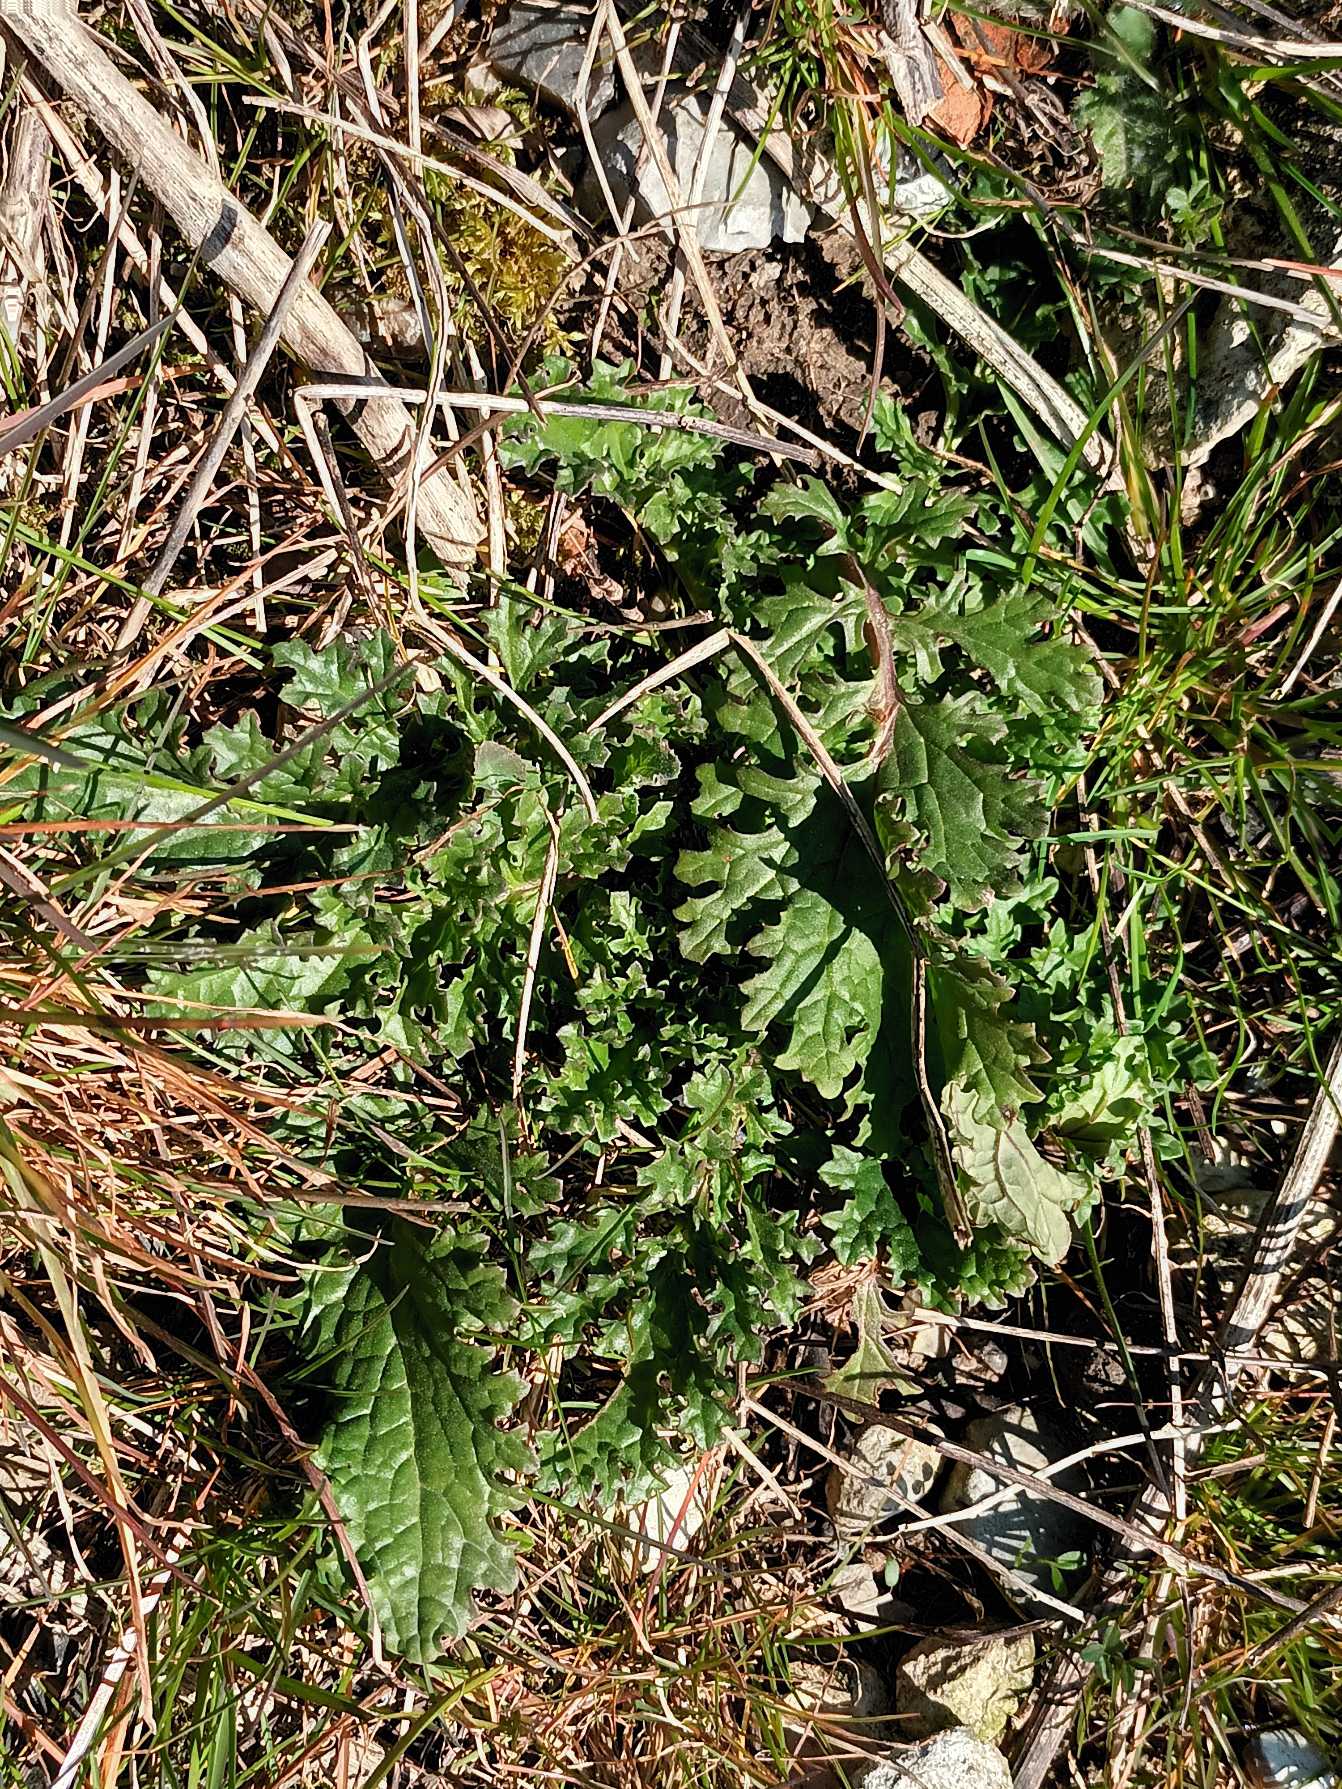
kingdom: Plantae
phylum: Tracheophyta
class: Magnoliopsida
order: Asterales
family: Asteraceae
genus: Jacobaea
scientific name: Jacobaea vulgaris
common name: Eng-brandbæger
